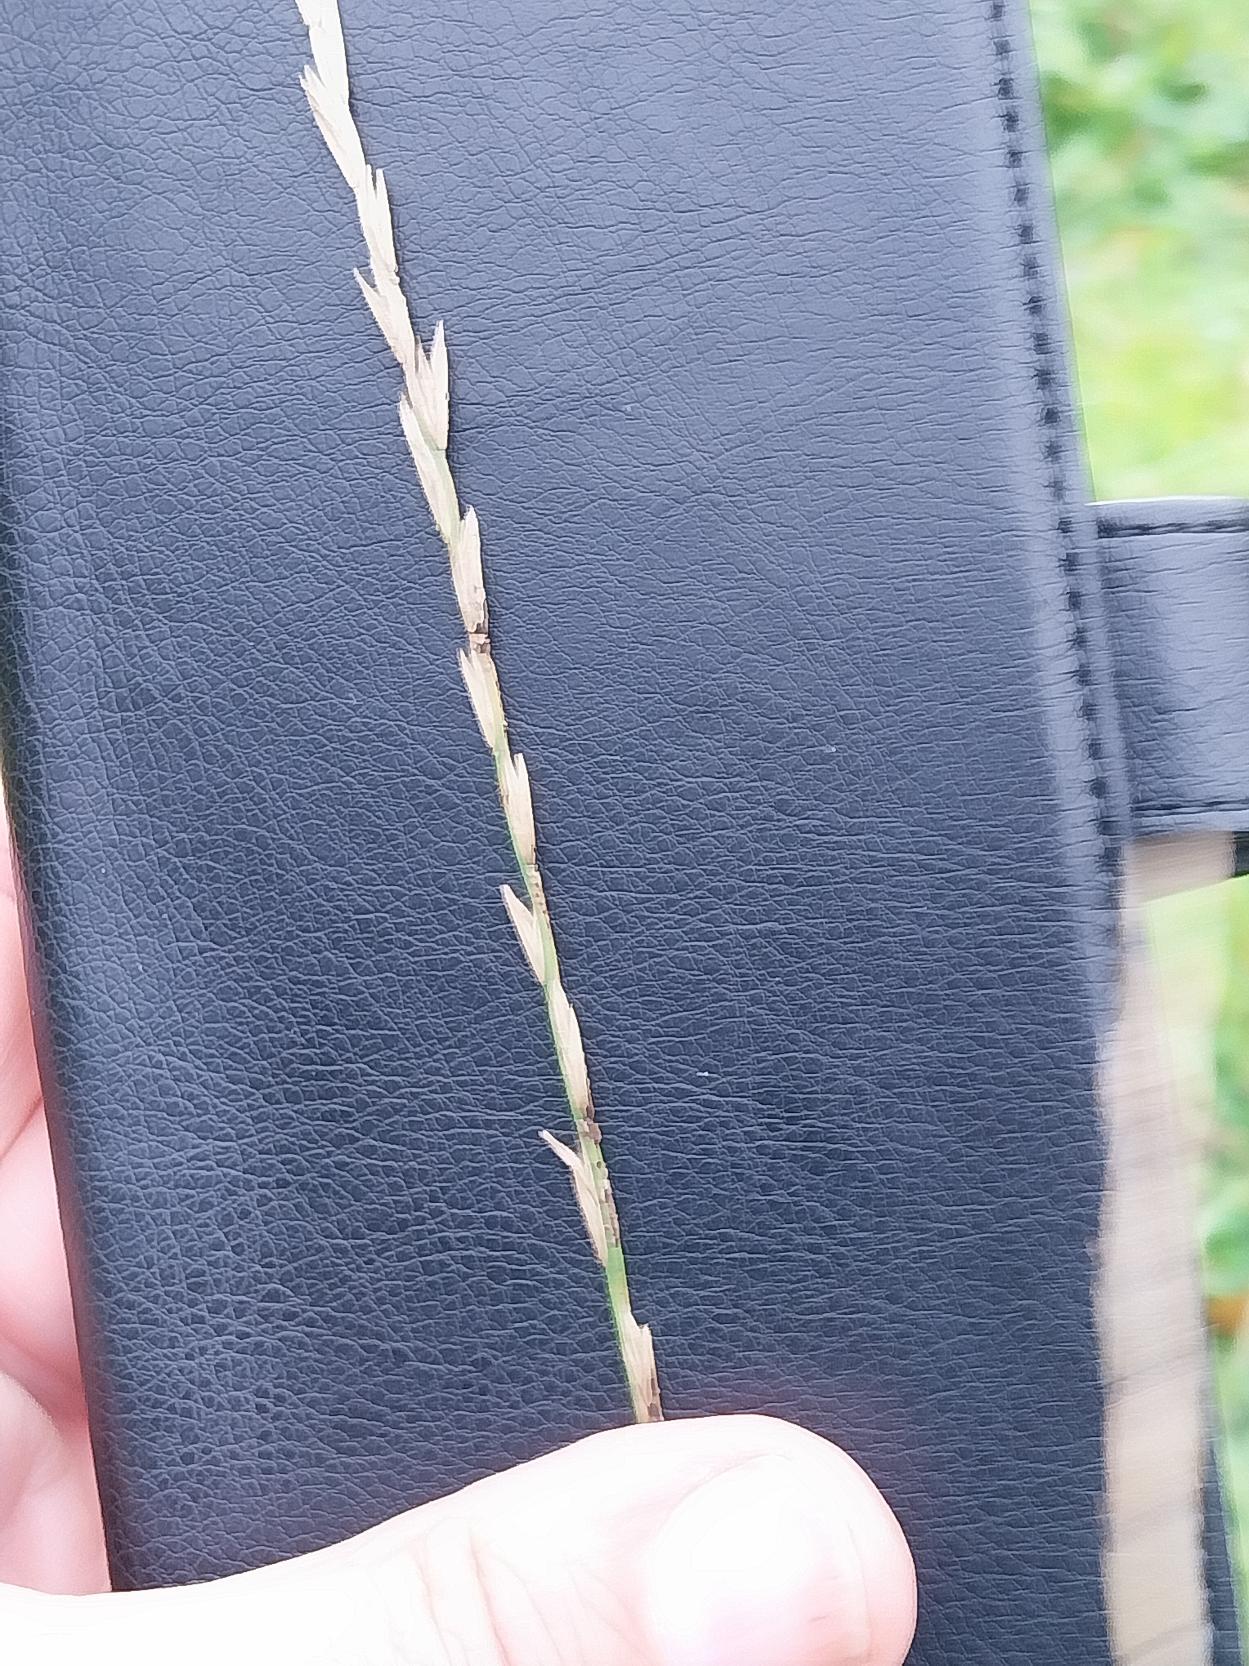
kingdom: Plantae
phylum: Tracheophyta
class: Liliopsida
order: Poales
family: Poaceae
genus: Lolium
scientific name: Lolium perenne
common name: Almindelig rajgræs
